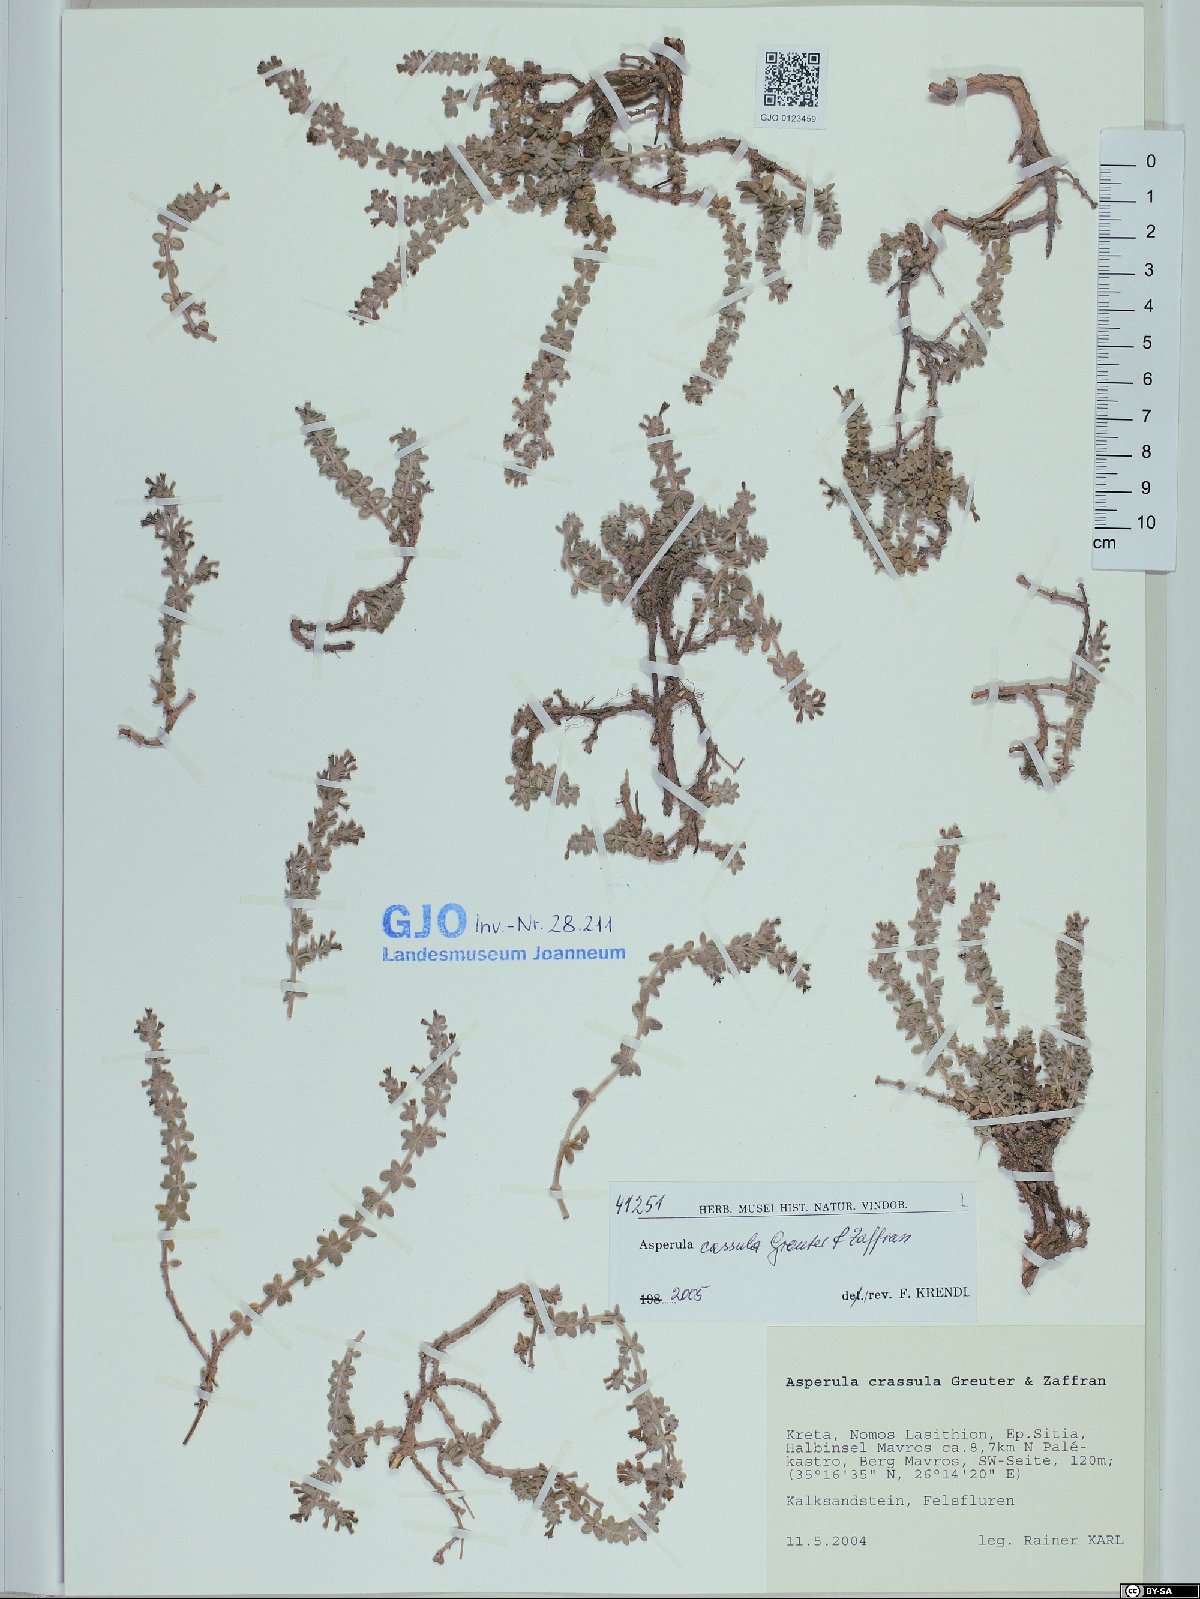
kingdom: Plantae
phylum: Tracheophyta
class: Magnoliopsida
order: Gentianales
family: Rubiaceae
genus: Thliphthisa
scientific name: Thliphthisa crassula
